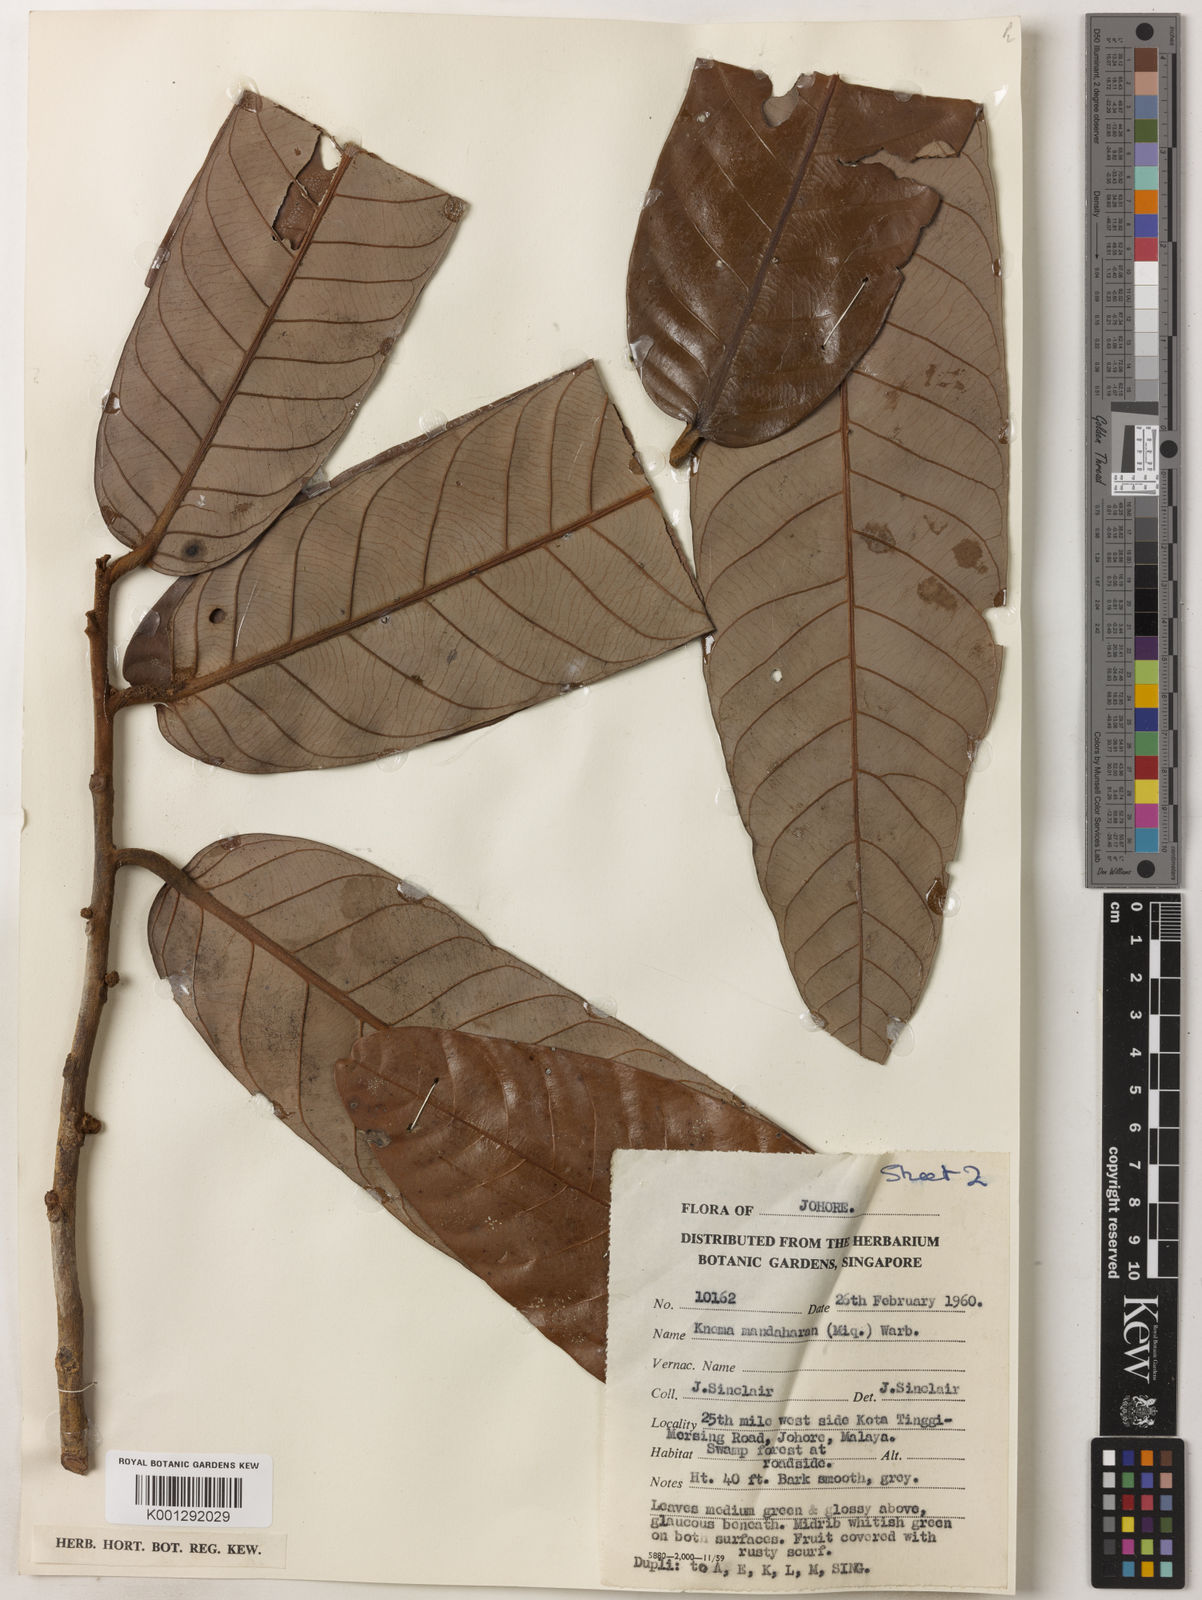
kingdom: Plantae
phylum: Tracheophyta
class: Magnoliopsida
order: Magnoliales
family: Myristicaceae
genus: Knema
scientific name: Knema mandaharan
